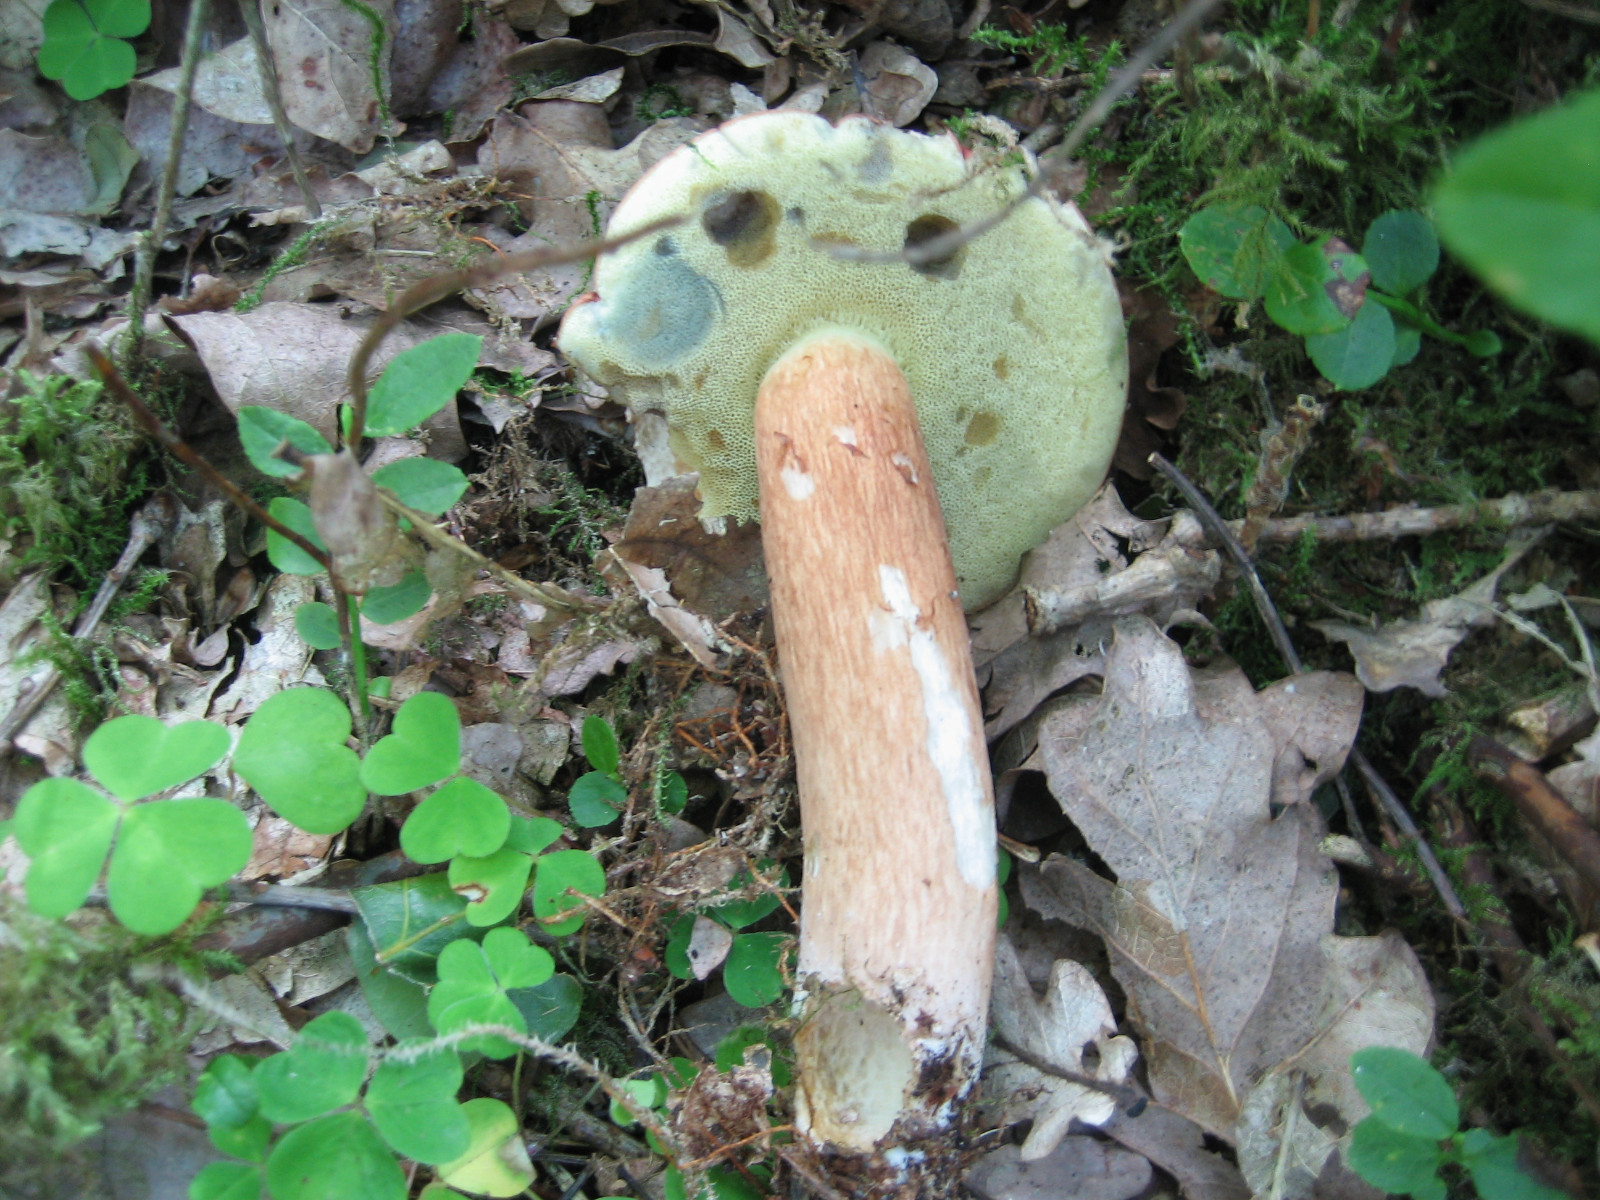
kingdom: Fungi
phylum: Basidiomycota
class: Agaricomycetes
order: Boletales
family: Boletaceae
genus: Imleria
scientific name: Imleria badia
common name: brunstokket rørhat
